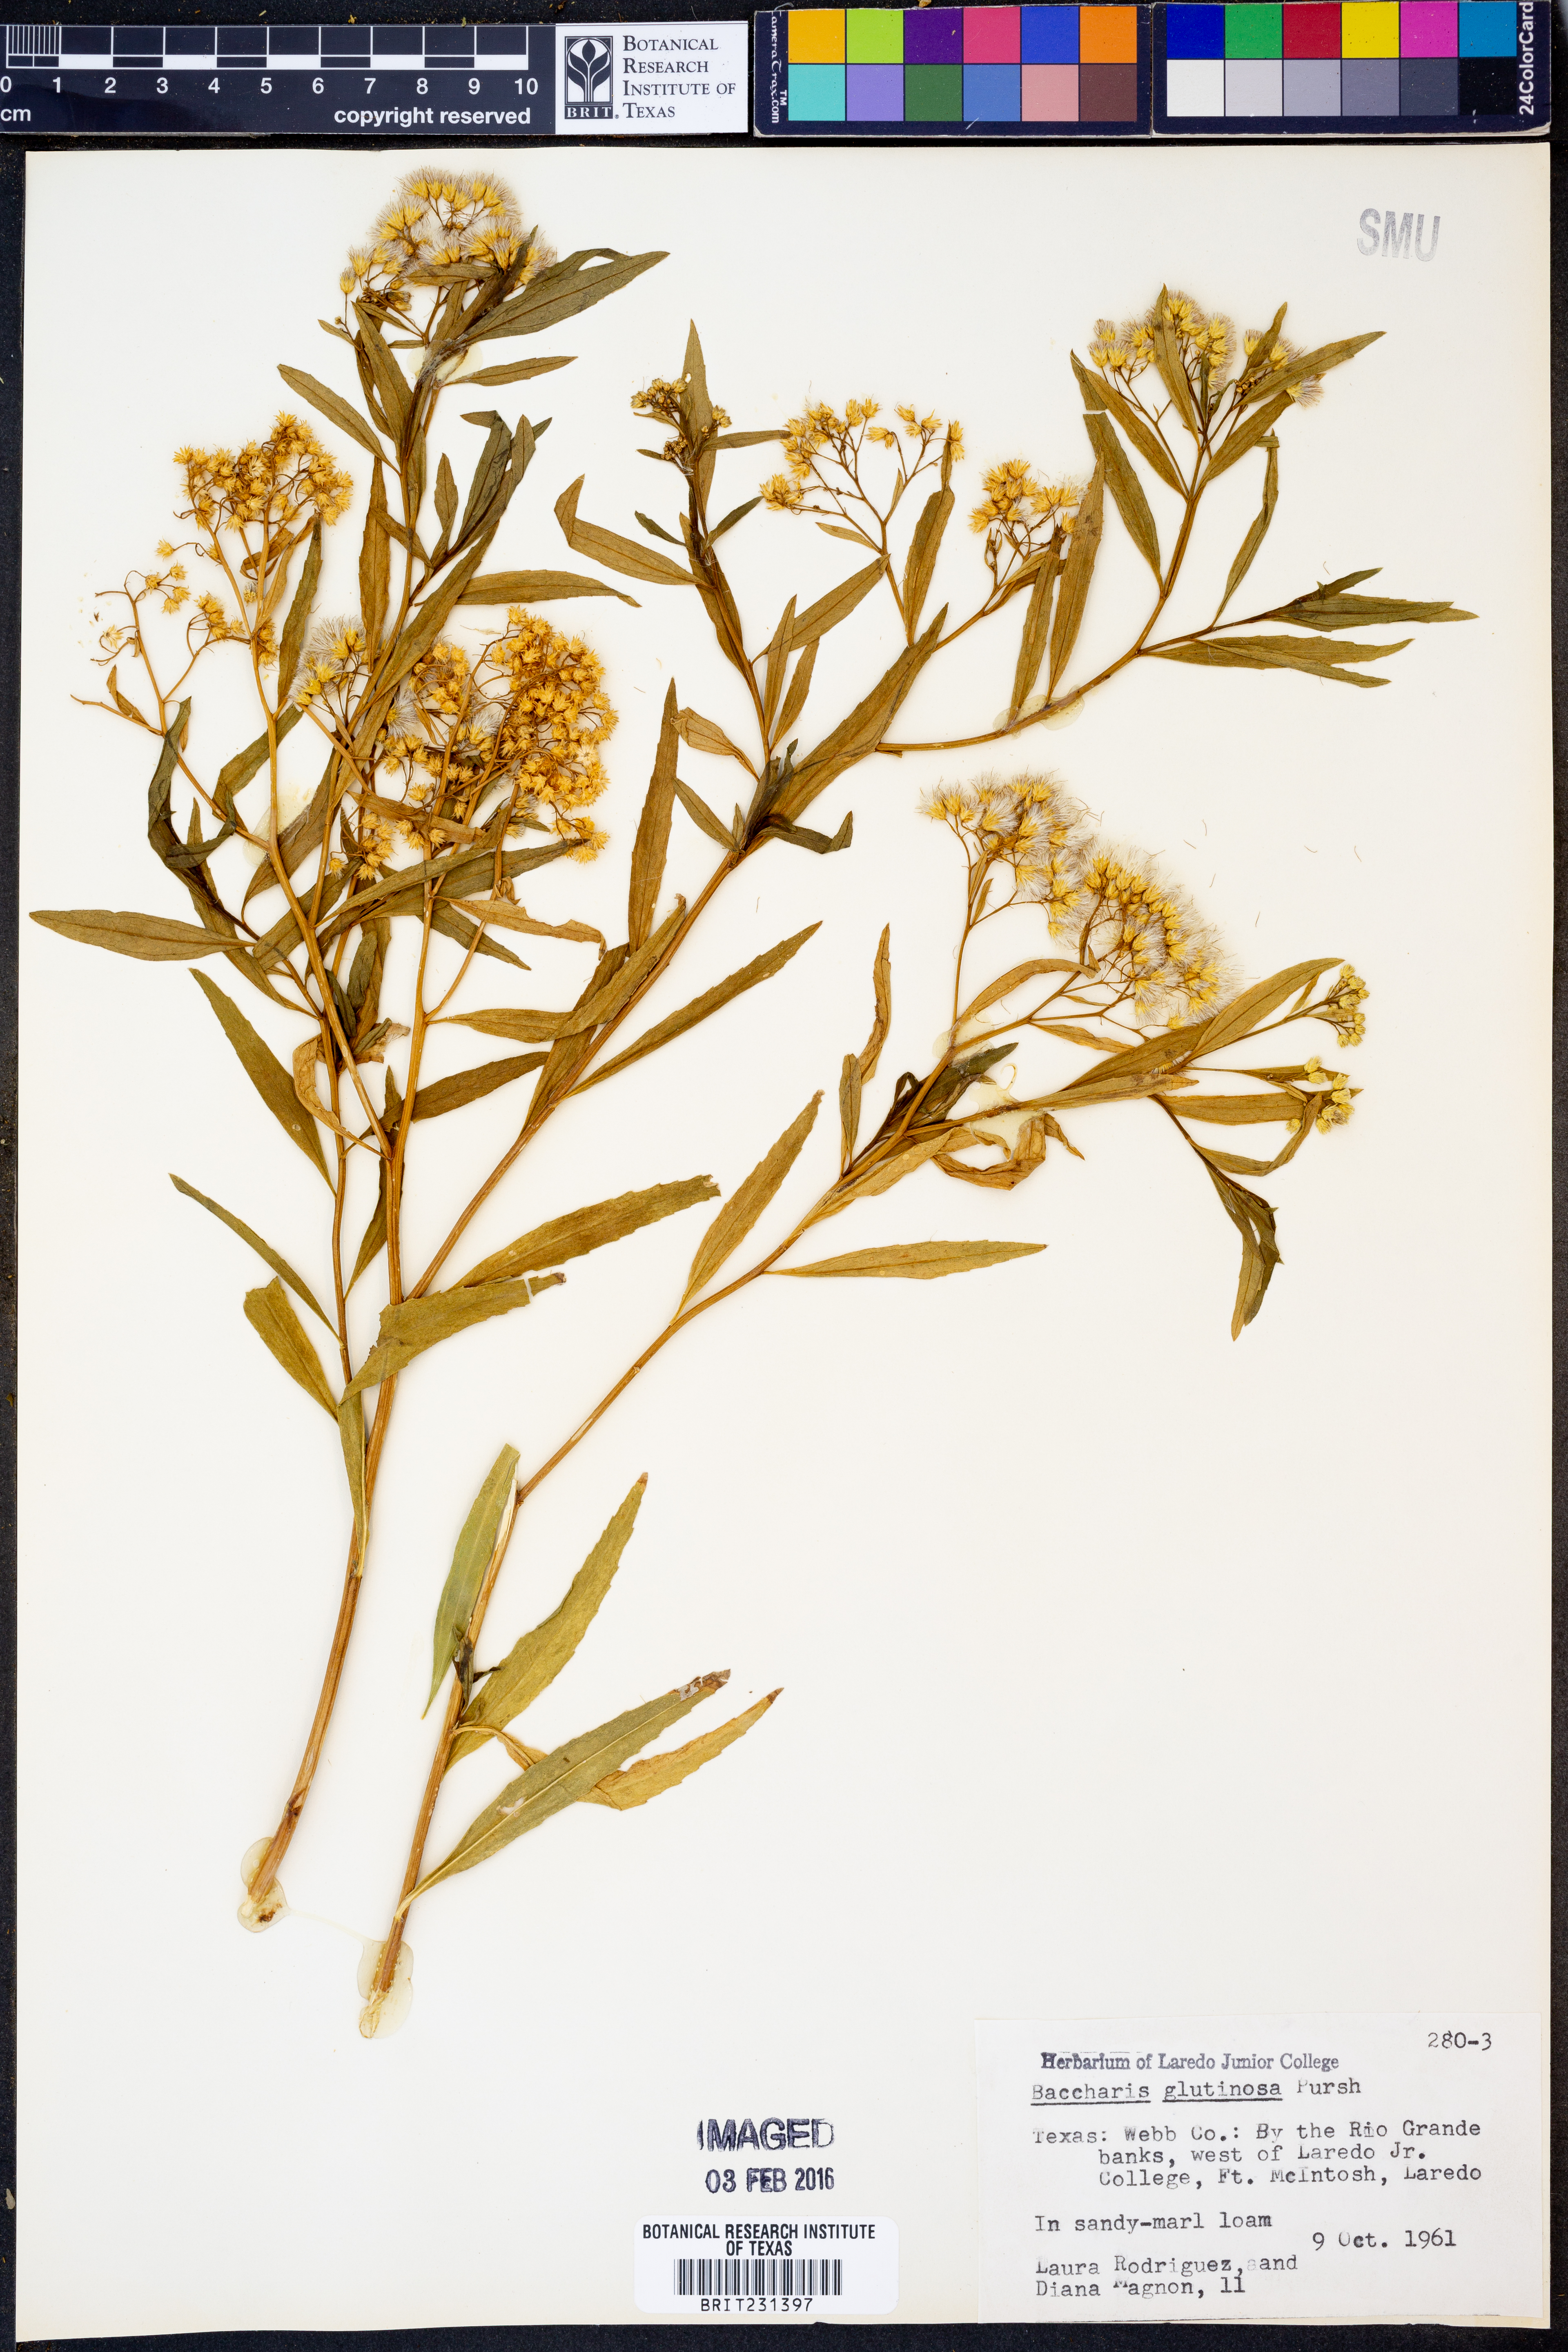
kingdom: Plantae
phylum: Tracheophyta
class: Magnoliopsida
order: Asterales
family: Asteraceae
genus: Baccharis
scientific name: Baccharis glutinosa
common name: Saltmarsh baccharis
